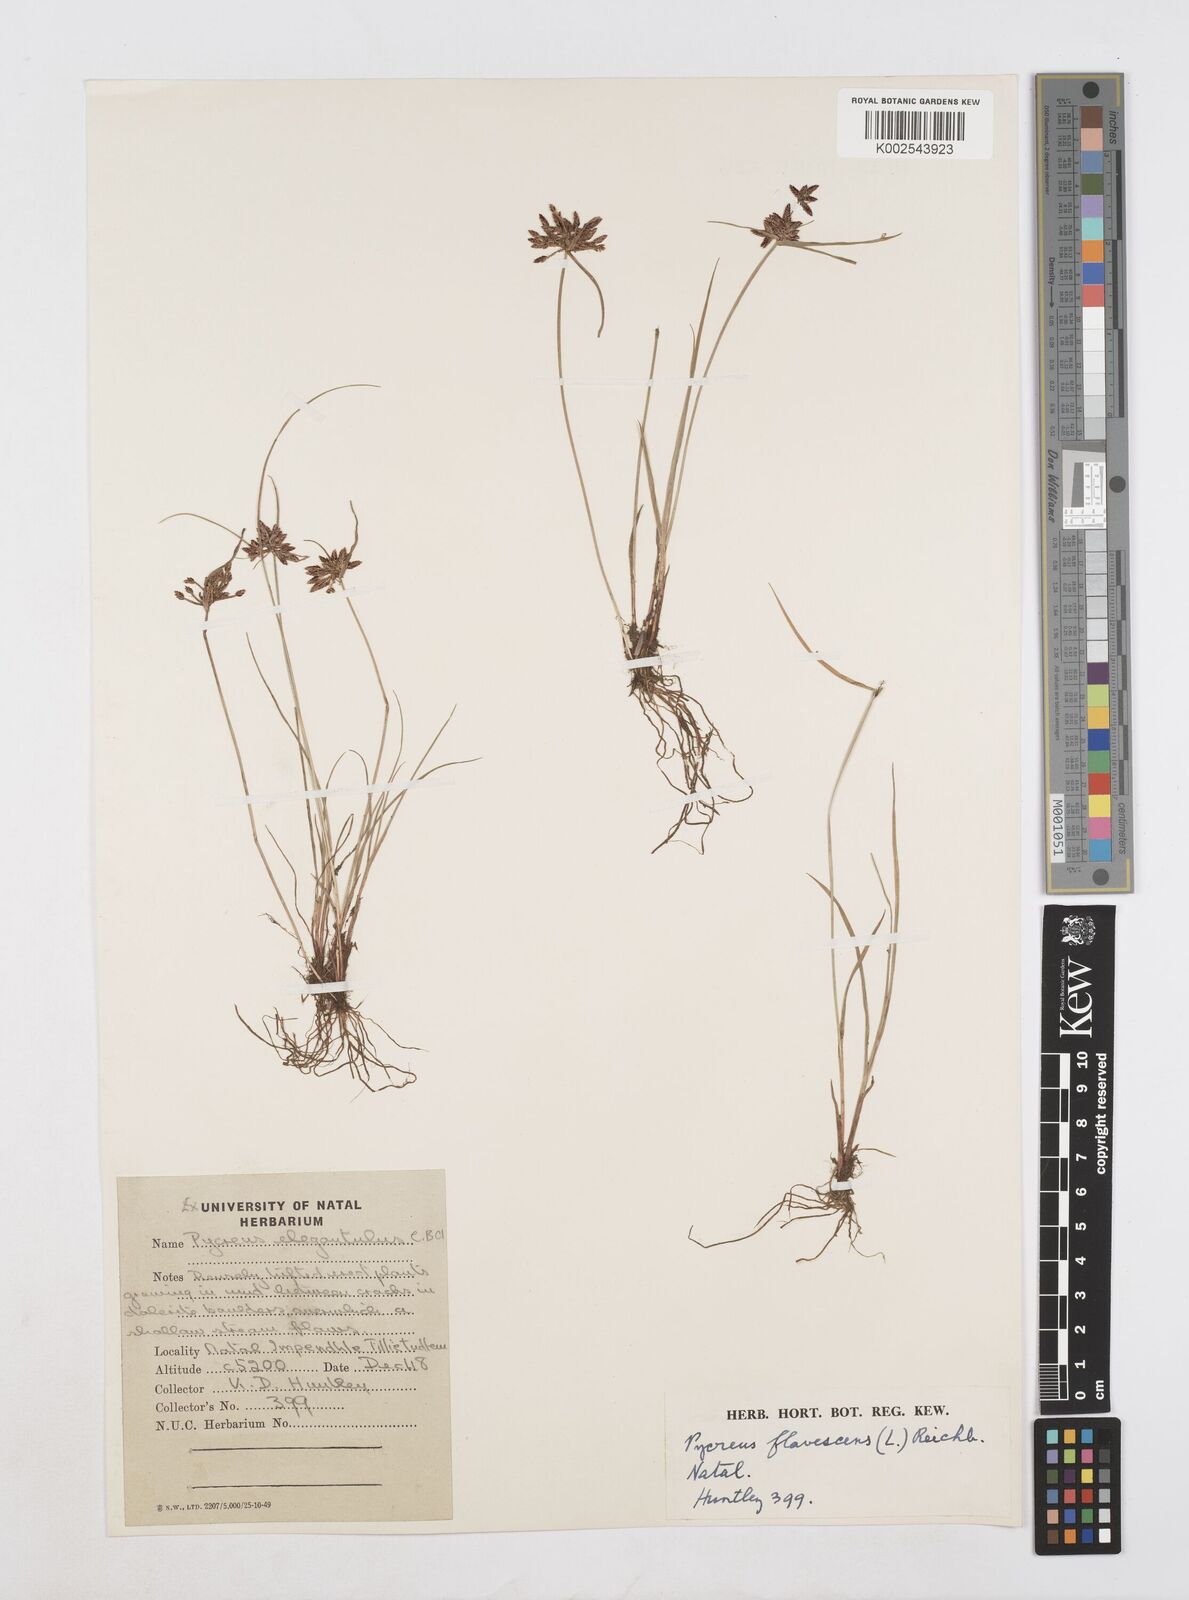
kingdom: Plantae
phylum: Tracheophyta
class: Liliopsida
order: Poales
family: Cyperaceae
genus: Cyperus
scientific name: Cyperus flavescens
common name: Yellow galingale
